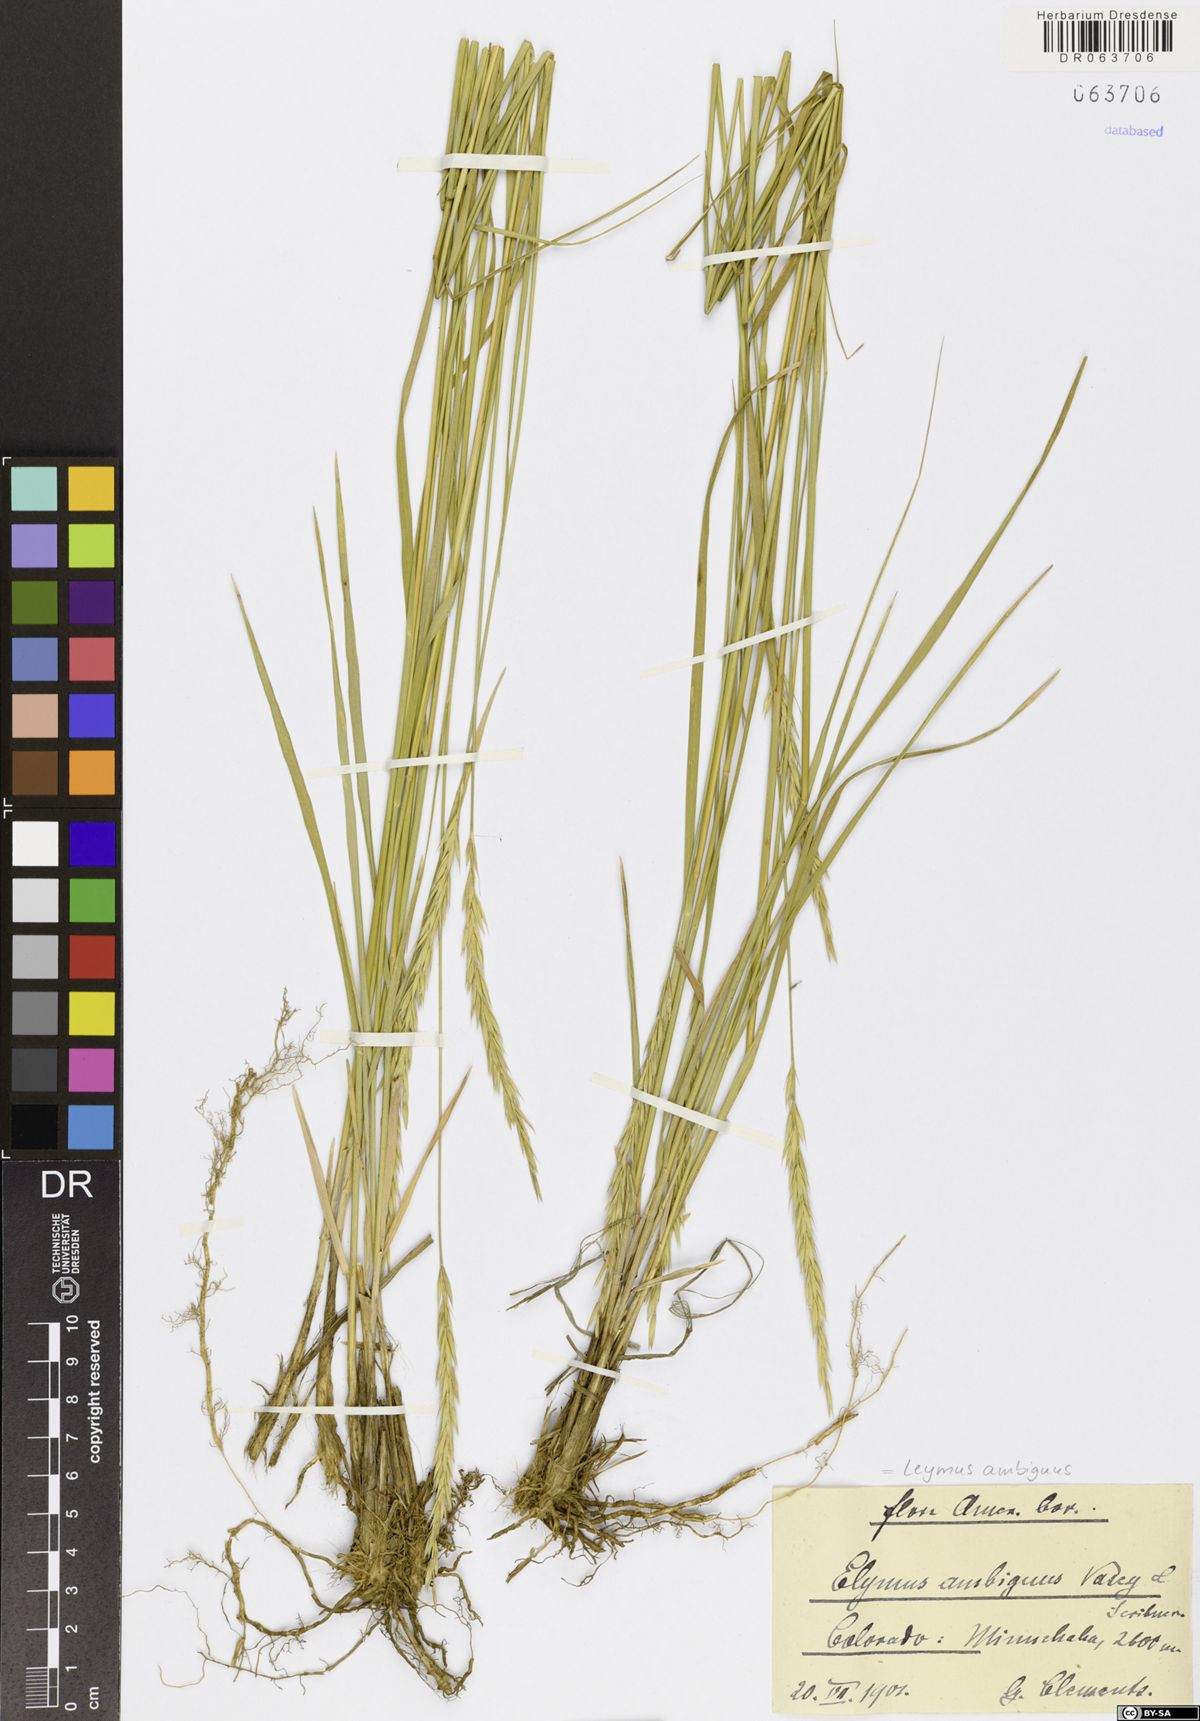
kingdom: Plantae
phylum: Tracheophyta
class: Liliopsida
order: Poales
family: Poaceae
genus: Leymus
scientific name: Leymus ambiguus
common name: Colorado wild rye
